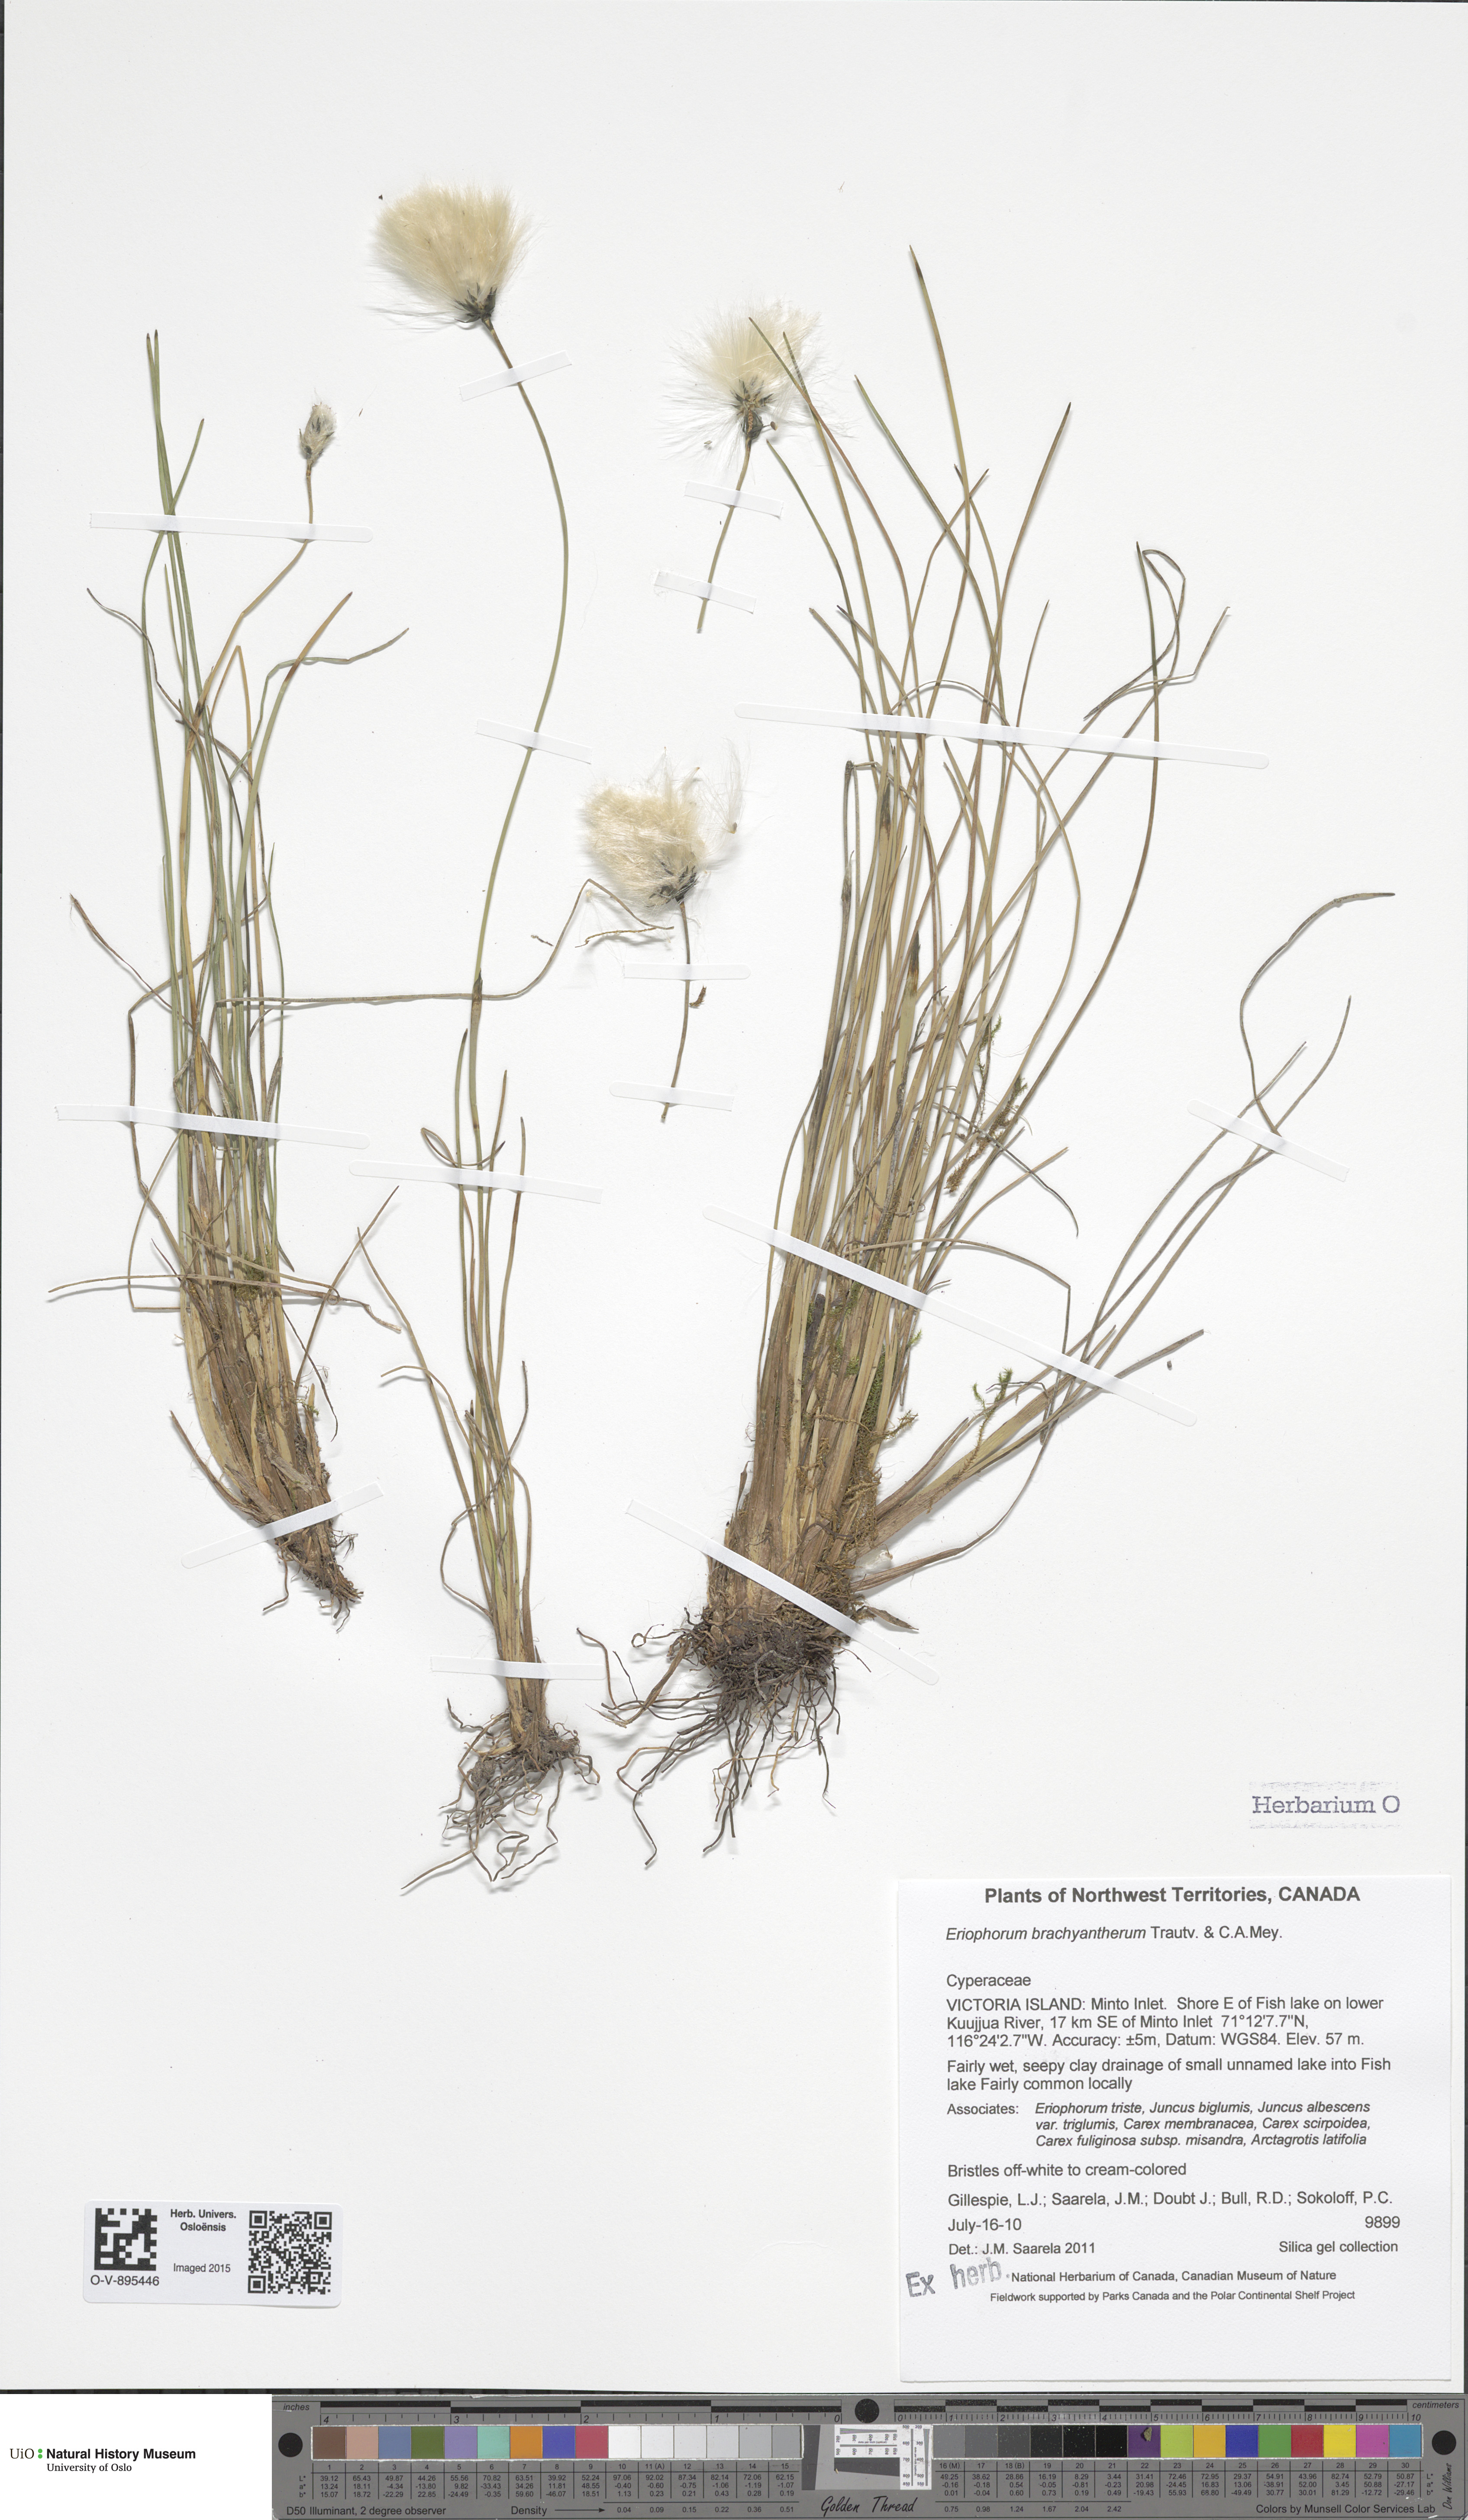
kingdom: Plantae
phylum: Tracheophyta
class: Liliopsida
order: Poales
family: Cyperaceae
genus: Eriophorum
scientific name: Eriophorum brachyantherum
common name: Closed-sheathed cottongrass
